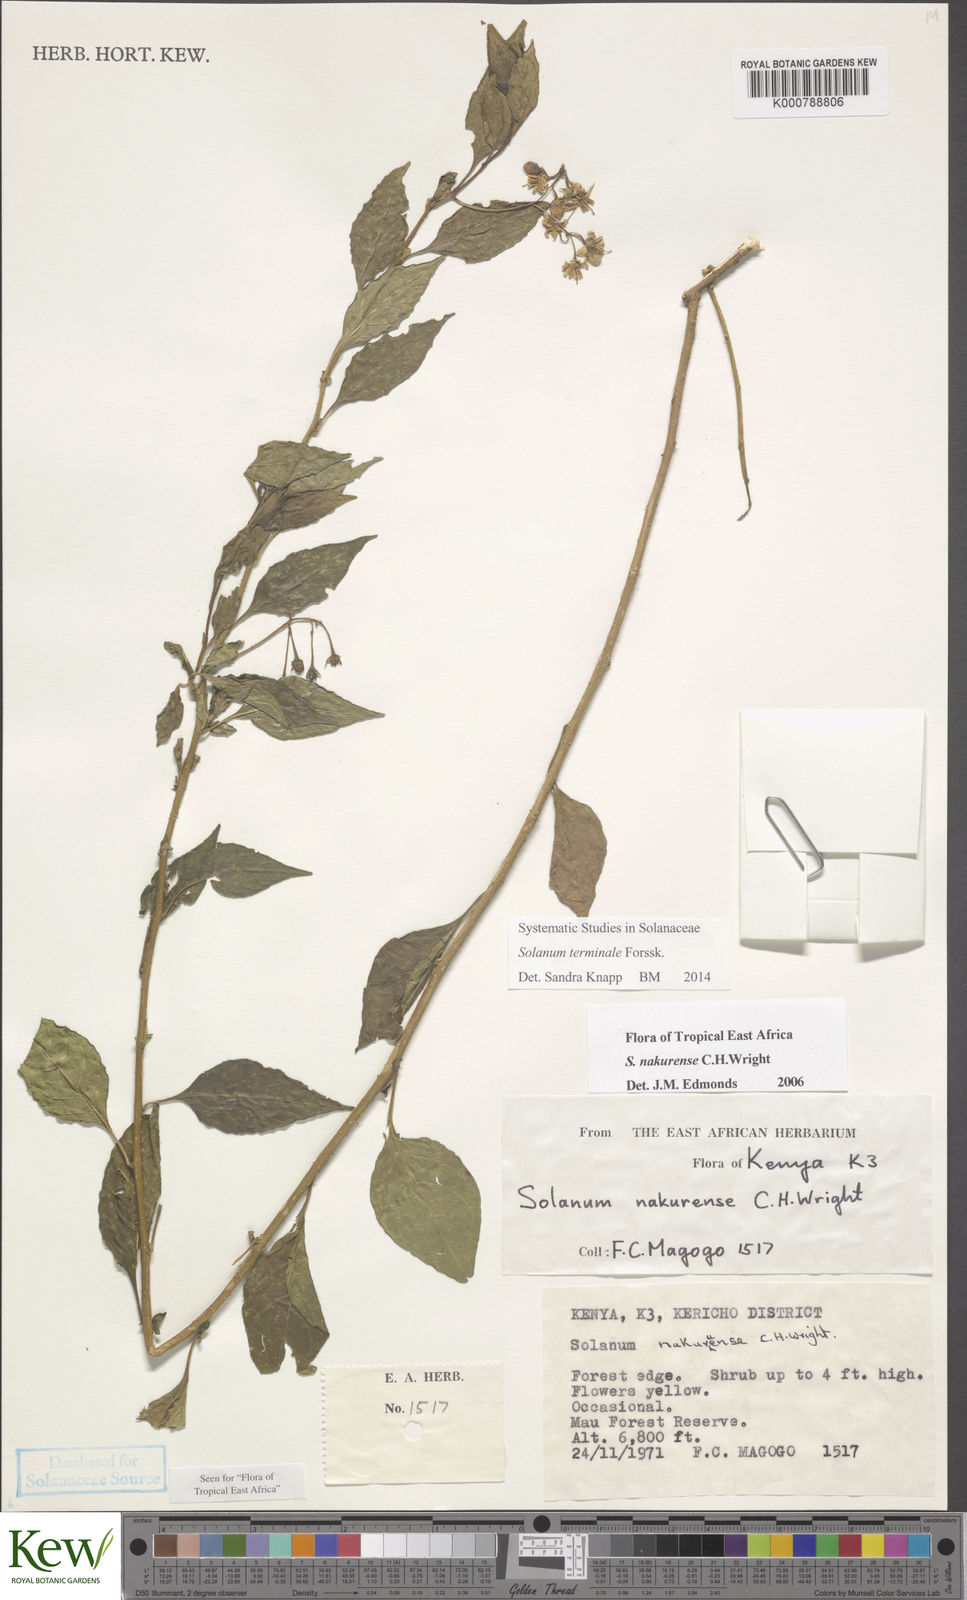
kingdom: Plantae
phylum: Tracheophyta
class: Magnoliopsida
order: Solanales
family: Solanaceae
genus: Solanum
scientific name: Solanum nakurense
